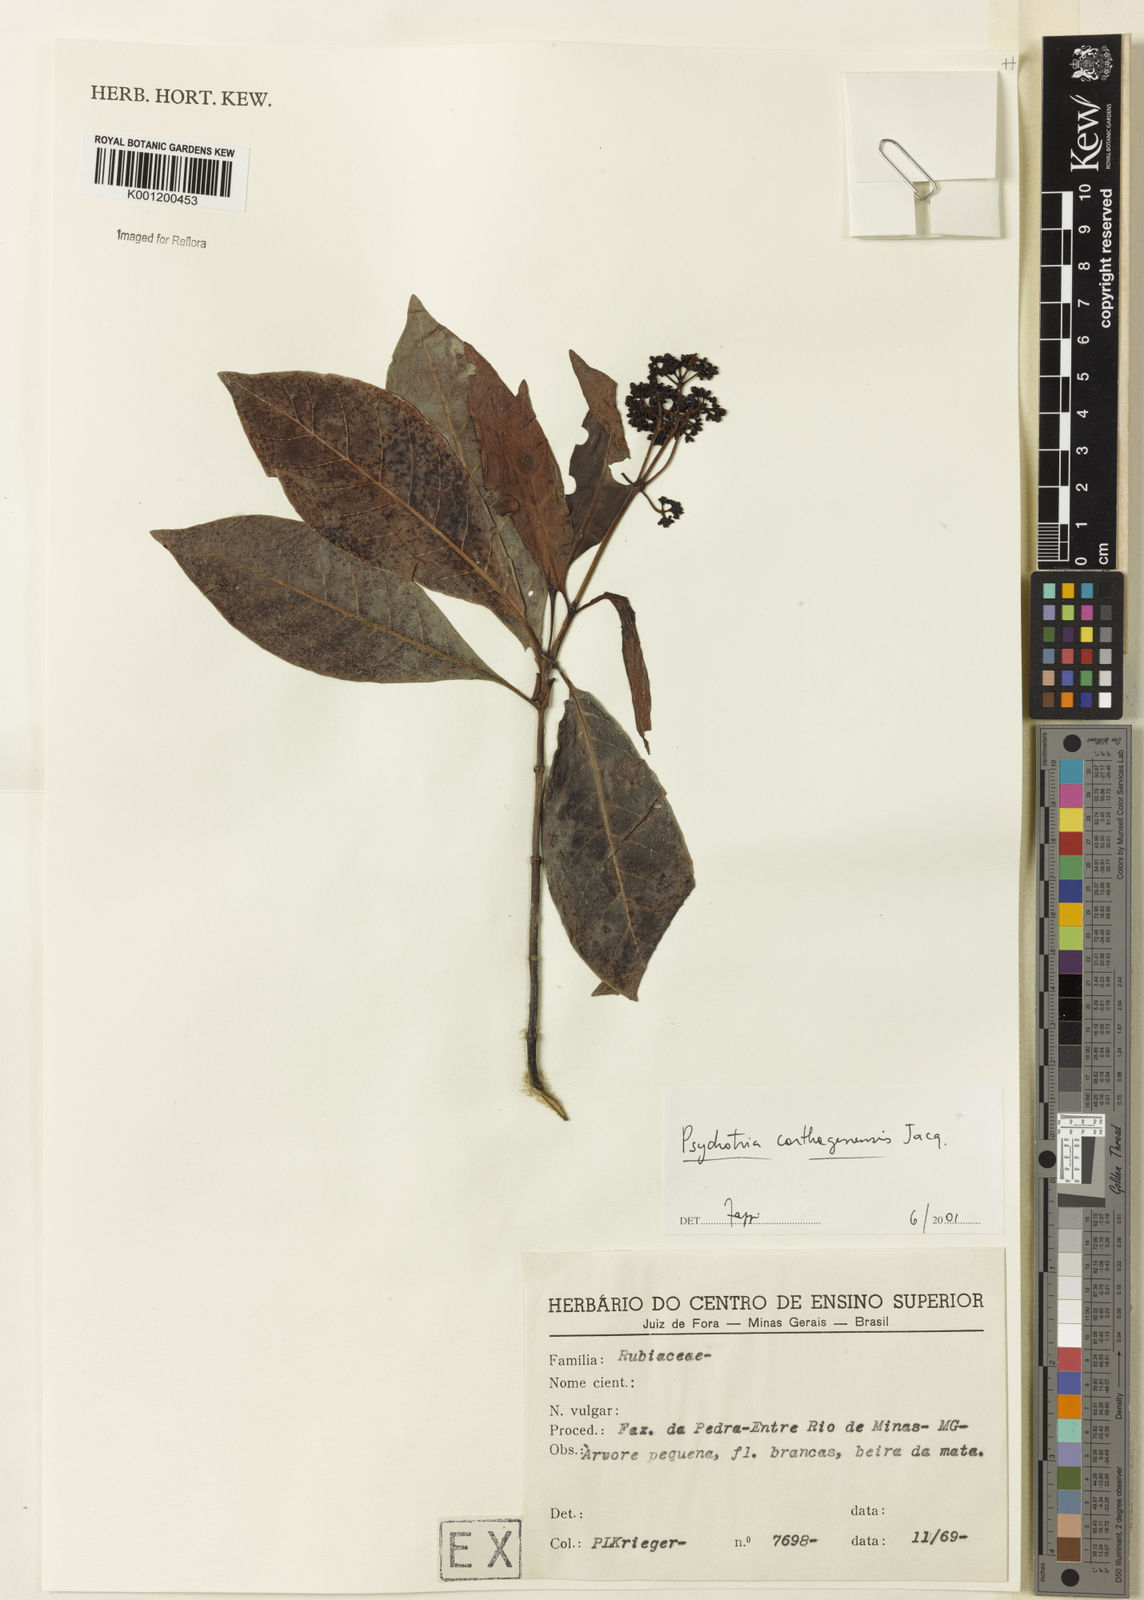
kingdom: Plantae
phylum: Tracheophyta
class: Magnoliopsida
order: Gentianales
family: Rubiaceae
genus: Psychotria
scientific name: Psychotria carthagenensis
